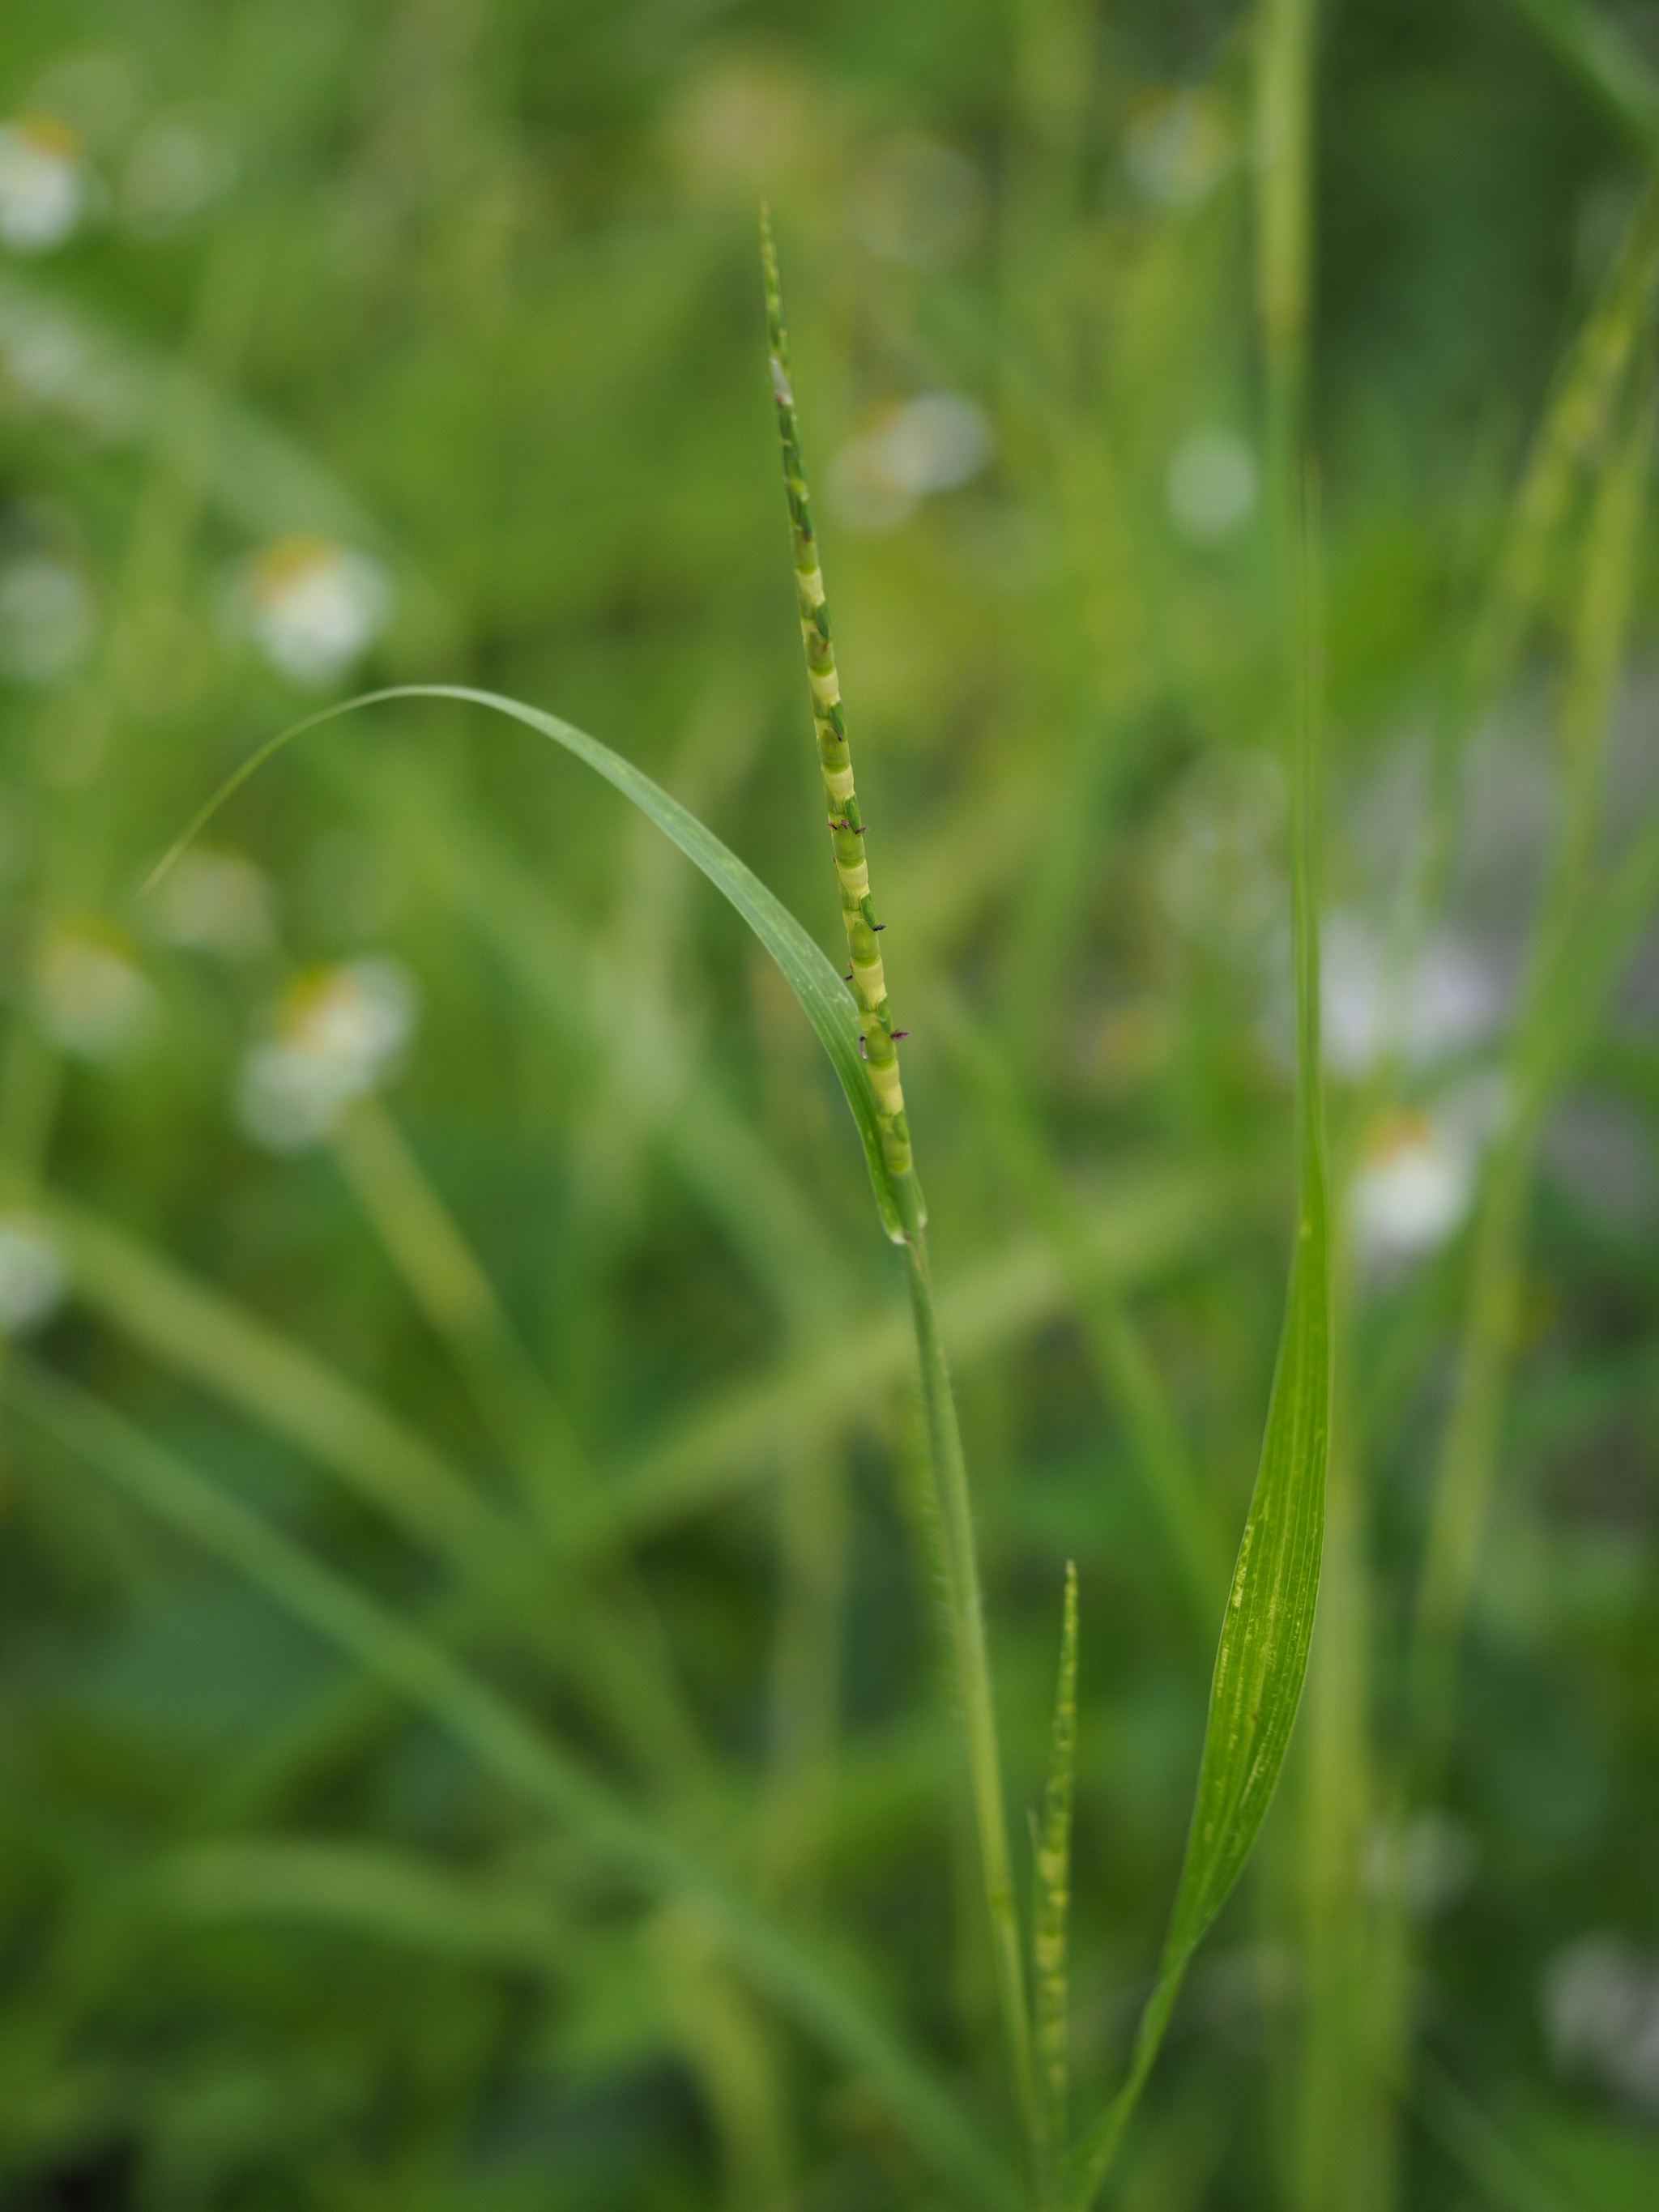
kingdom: Plantae
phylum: Tracheophyta
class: Liliopsida
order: Poales
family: Poaceae
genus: Rottboellia
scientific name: Rottboellia cochinchinensis
